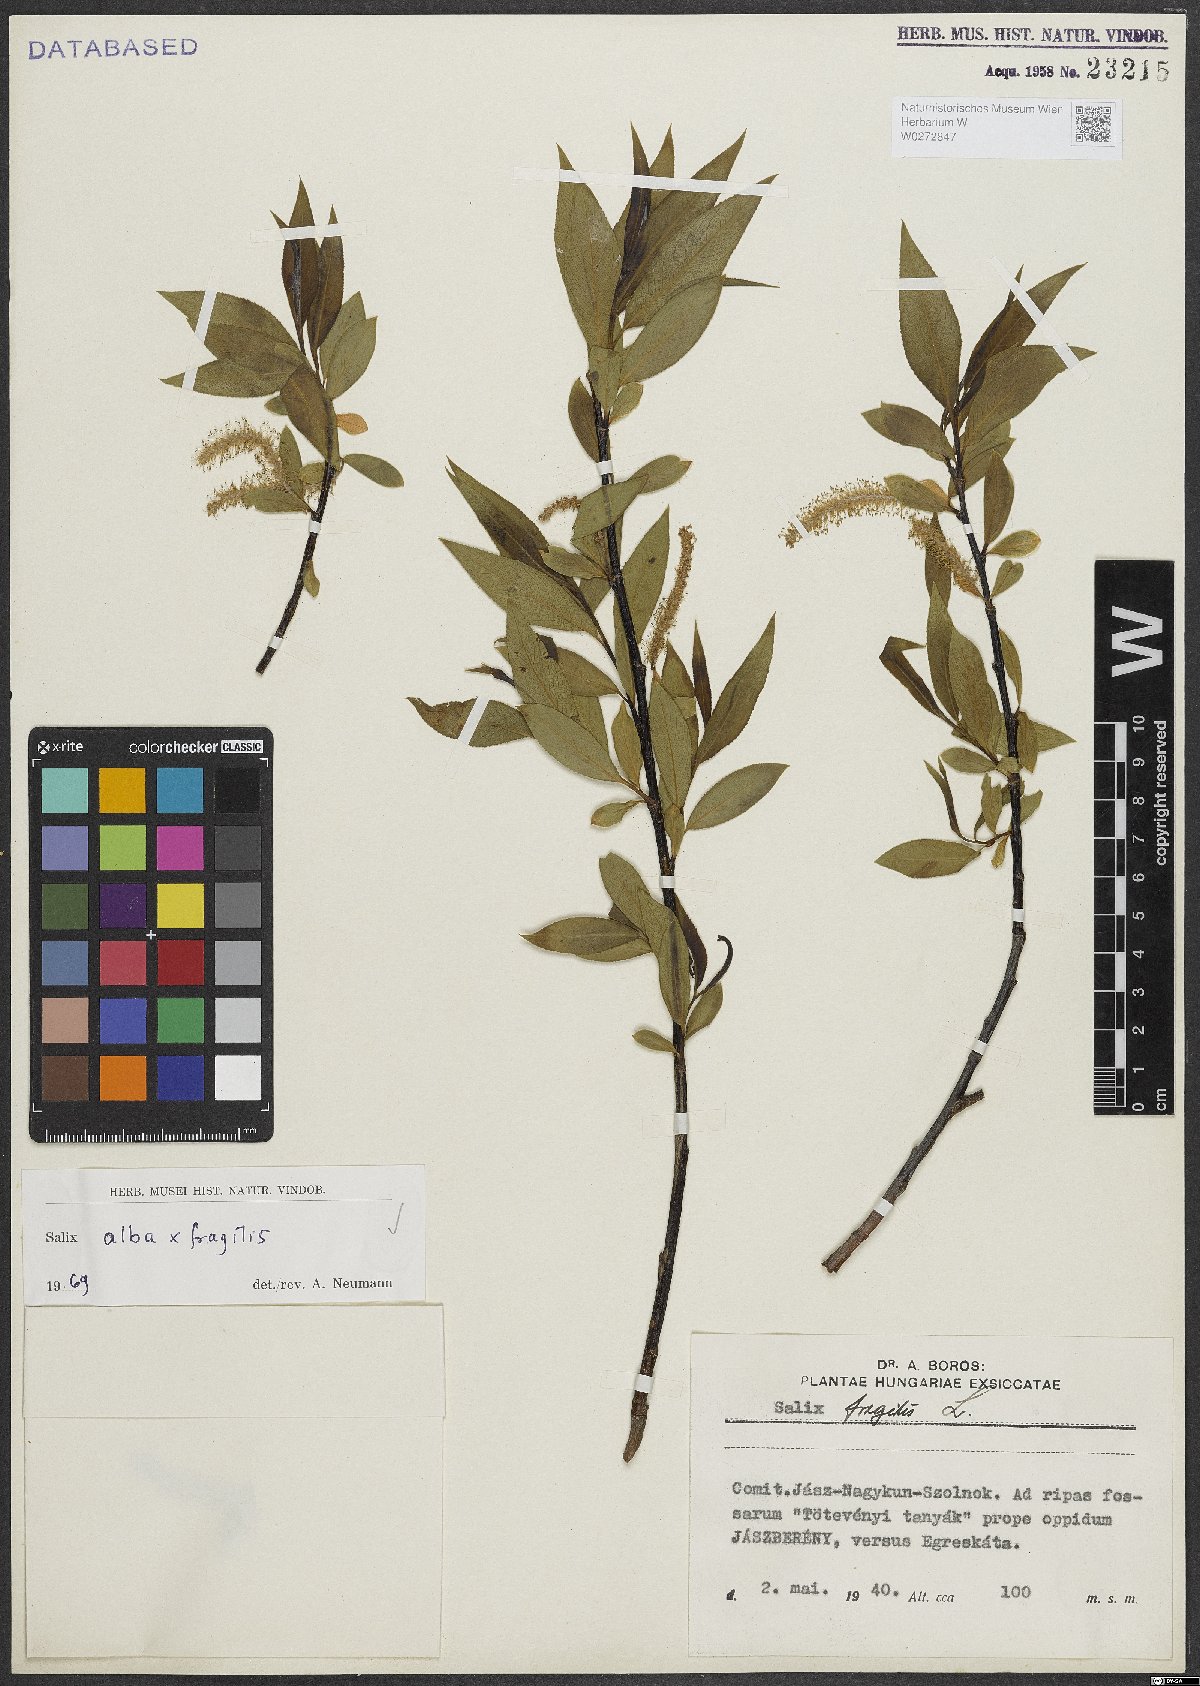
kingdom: Plantae
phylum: Tracheophyta
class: Magnoliopsida
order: Malpighiales
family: Salicaceae
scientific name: Salicaceae
